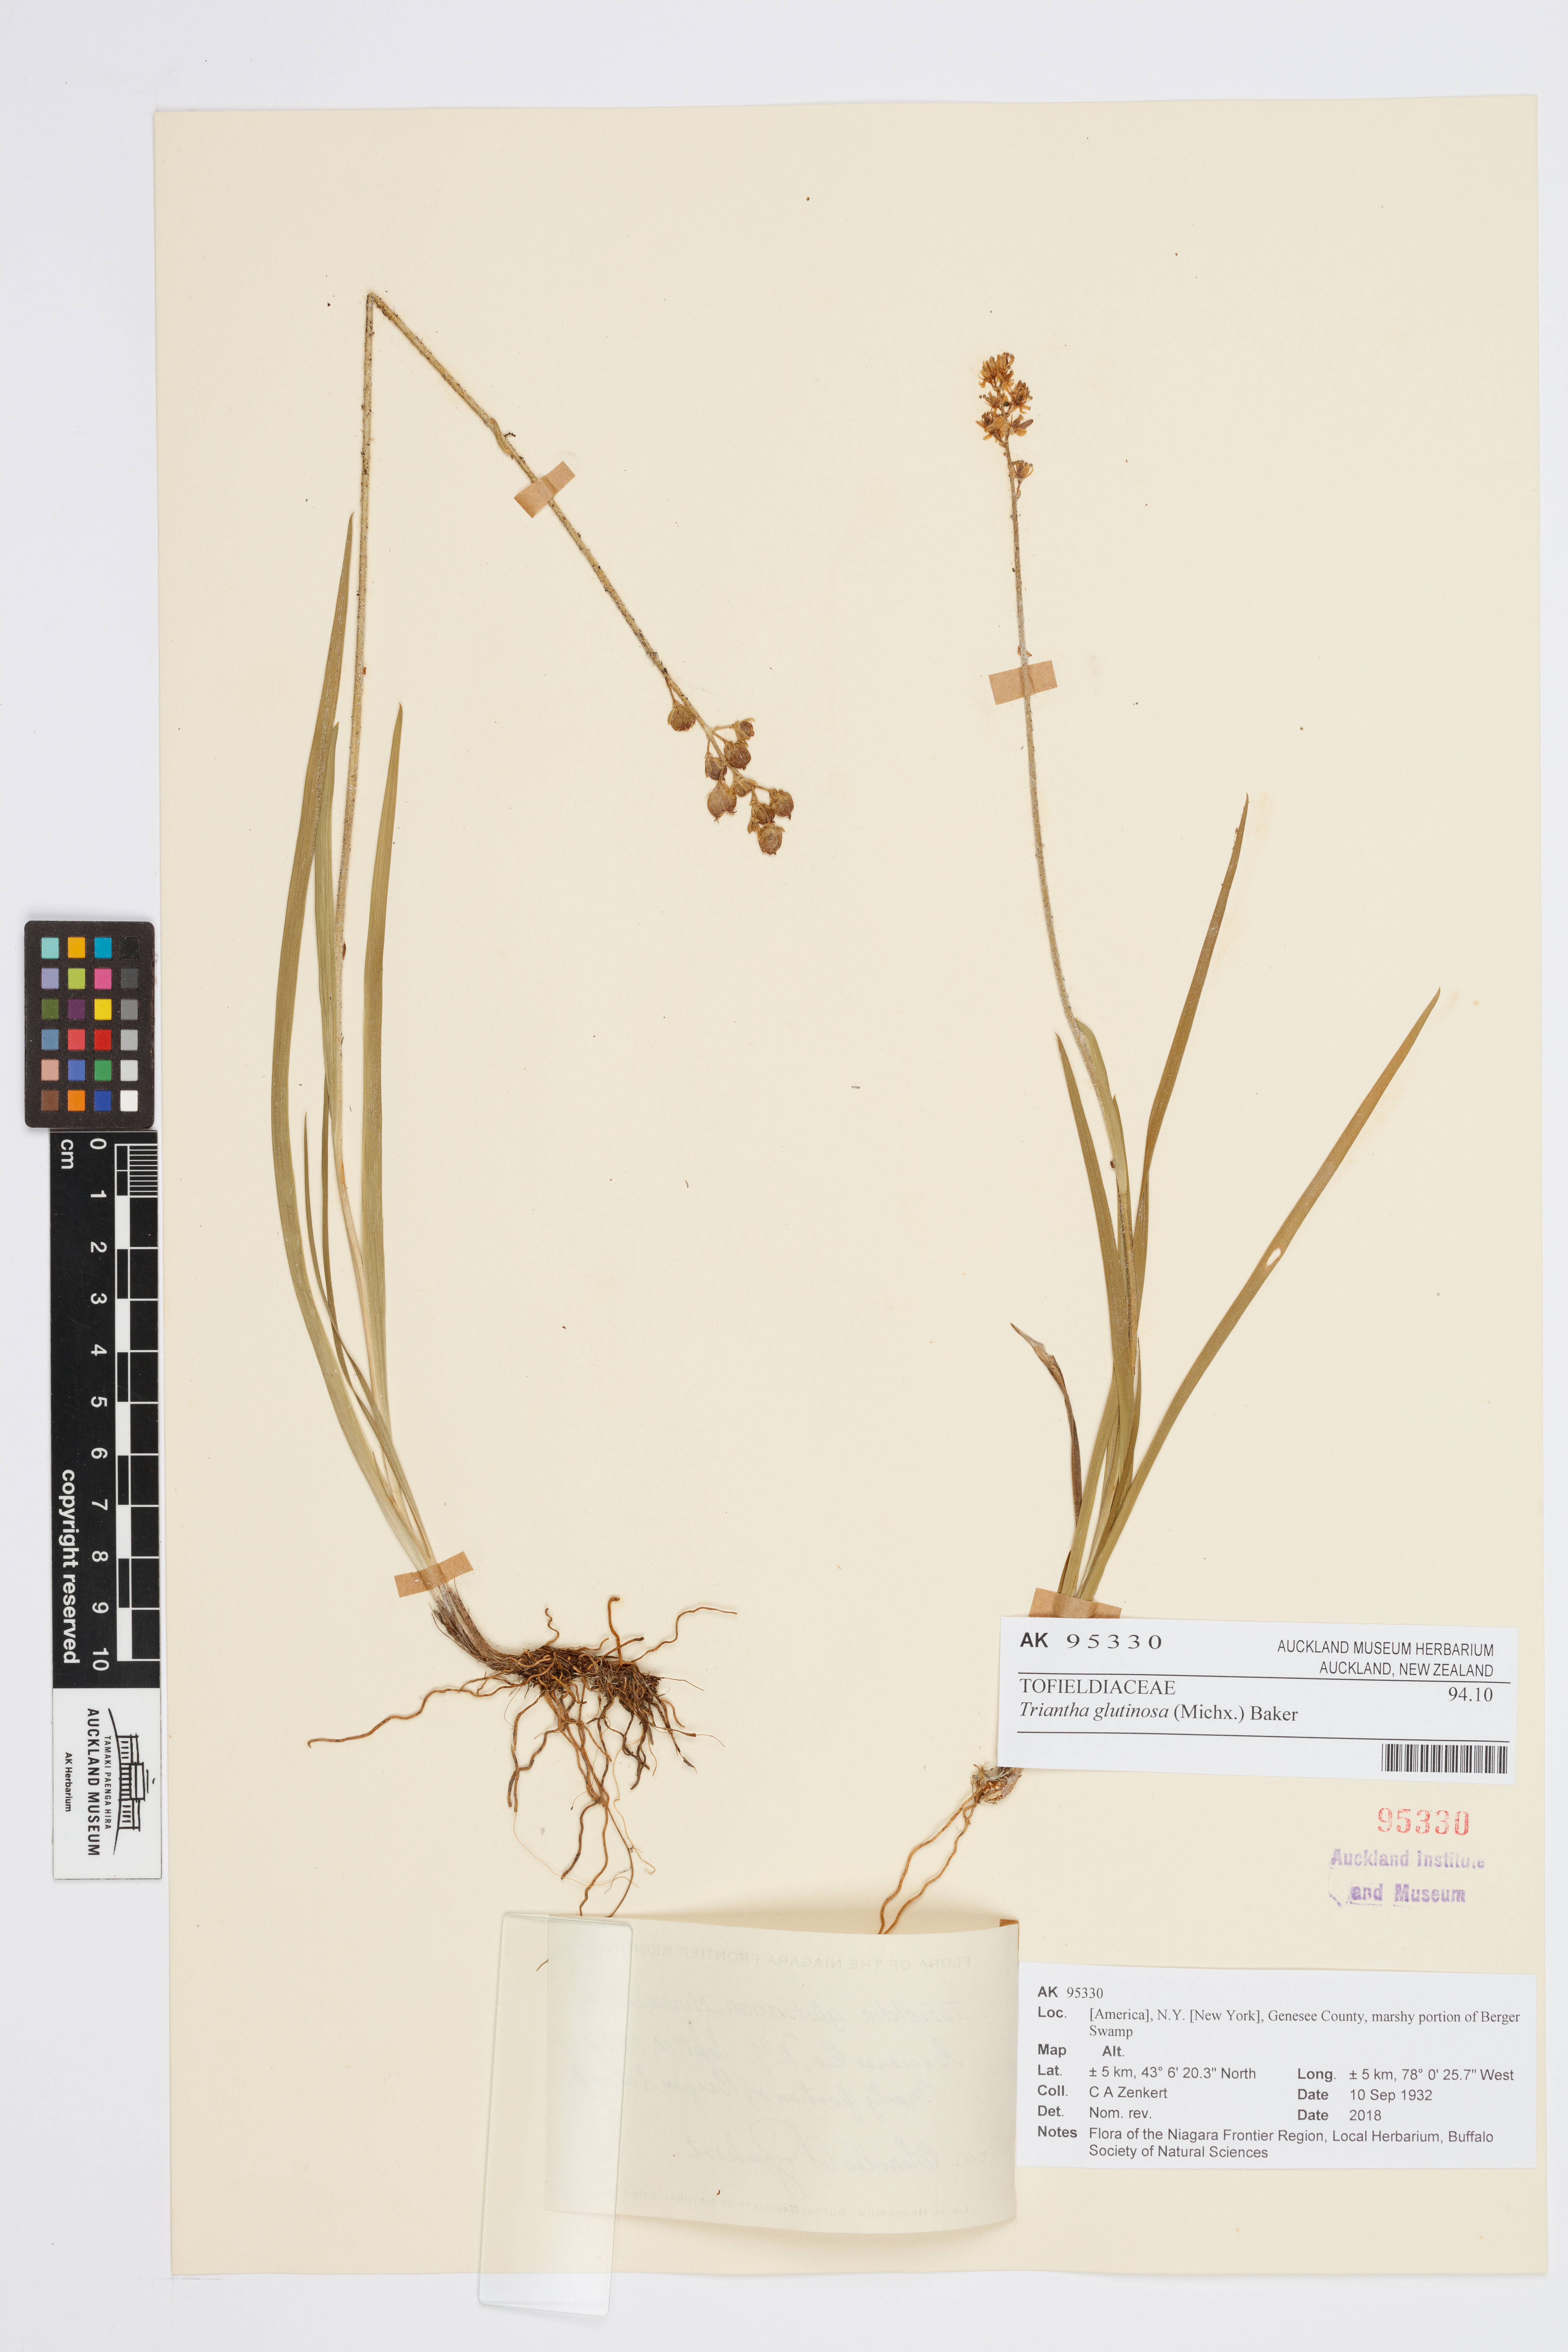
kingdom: Plantae
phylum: Tracheophyta
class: Liliopsida
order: Alismatales
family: Tofieldiaceae
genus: Triantha
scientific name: Triantha glutinosa
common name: Glutinous tofieldia
